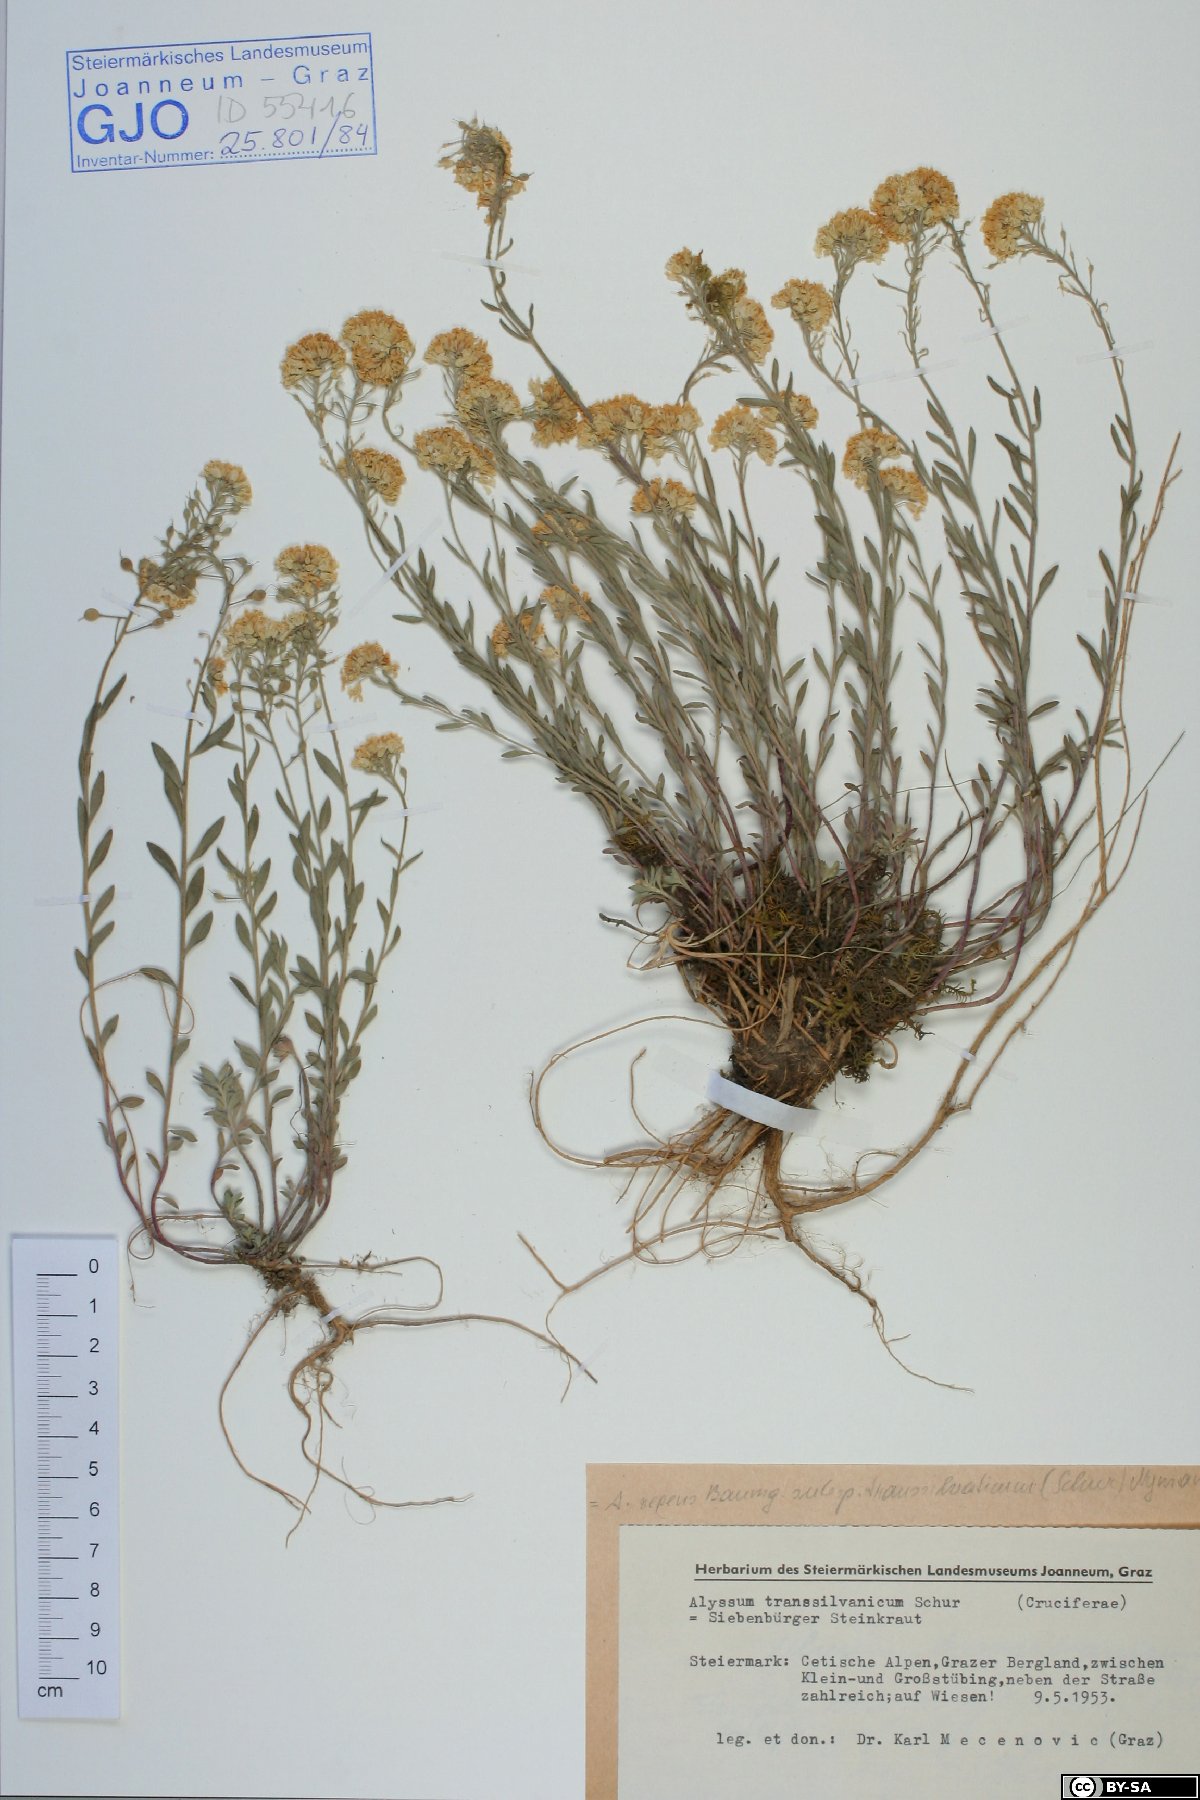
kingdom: Plantae
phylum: Tracheophyta
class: Magnoliopsida
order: Brassicales
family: Brassicaceae
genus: Alyssum
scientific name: Alyssum repens
